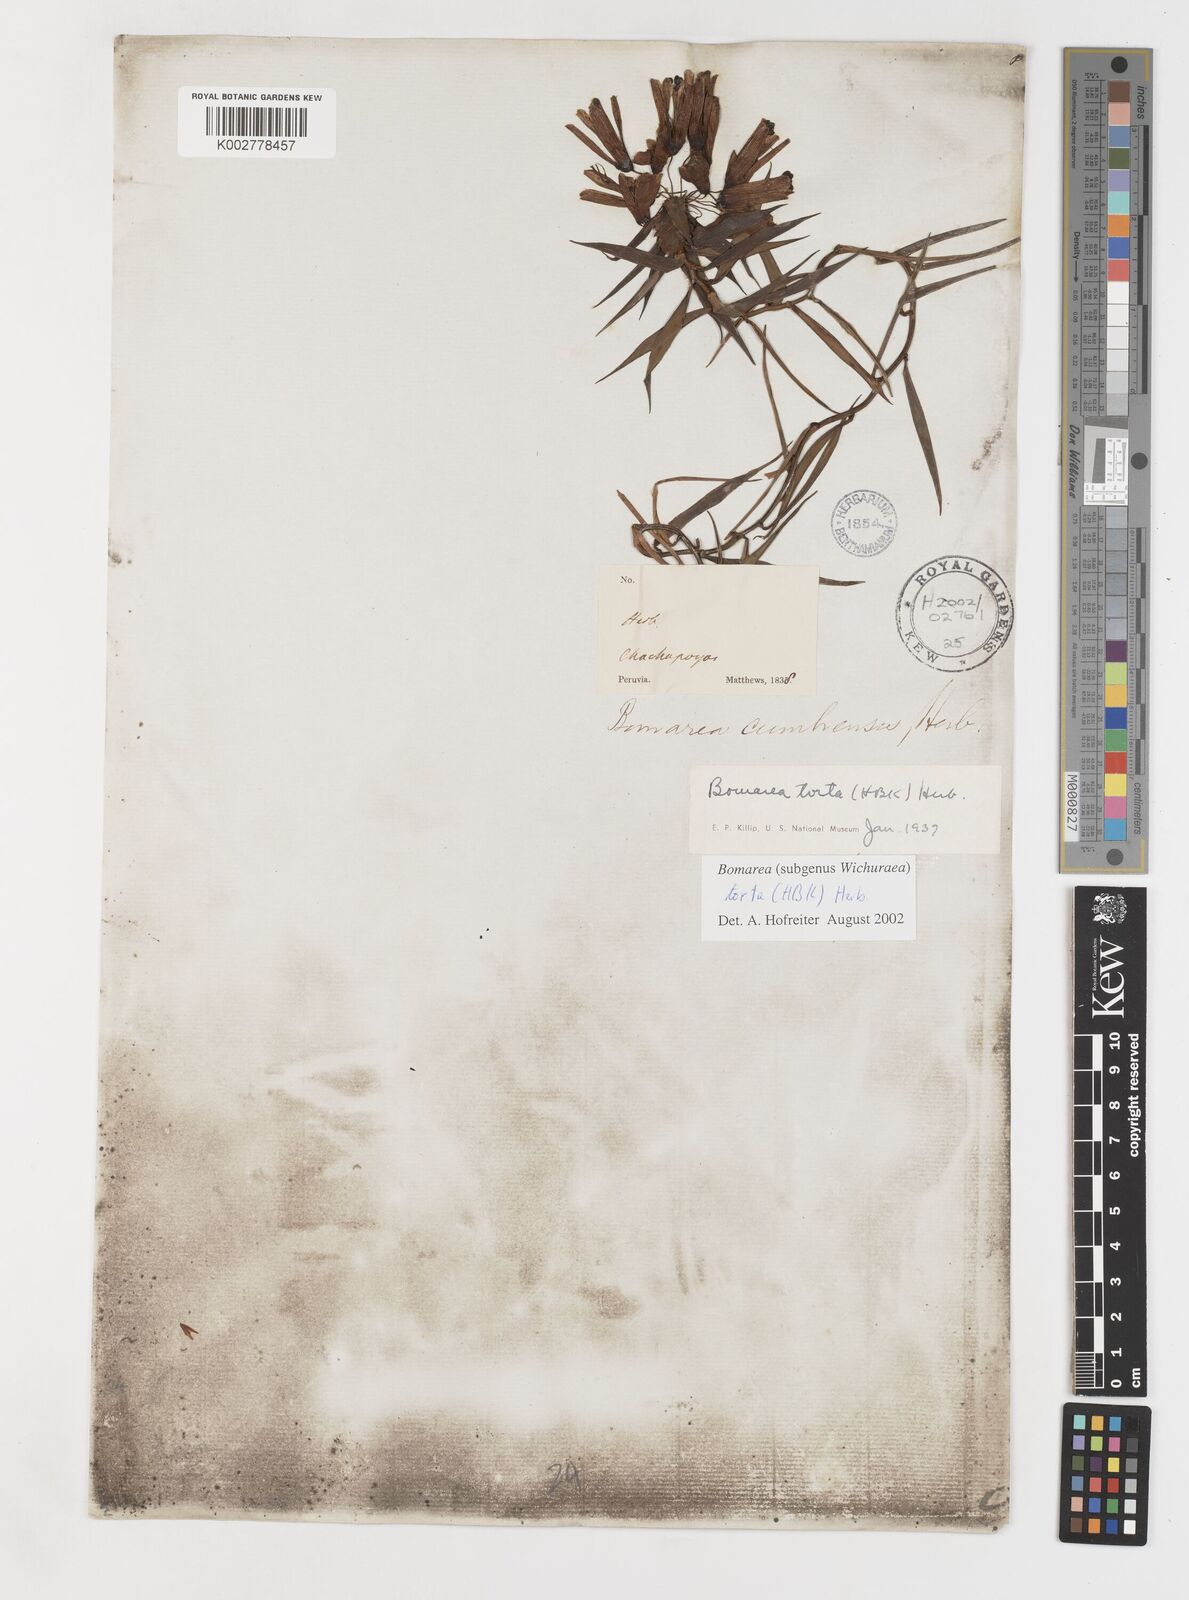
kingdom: Plantae
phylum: Tracheophyta
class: Liliopsida
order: Liliales
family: Alstroemeriaceae
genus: Bomarea
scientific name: Bomarea torta
